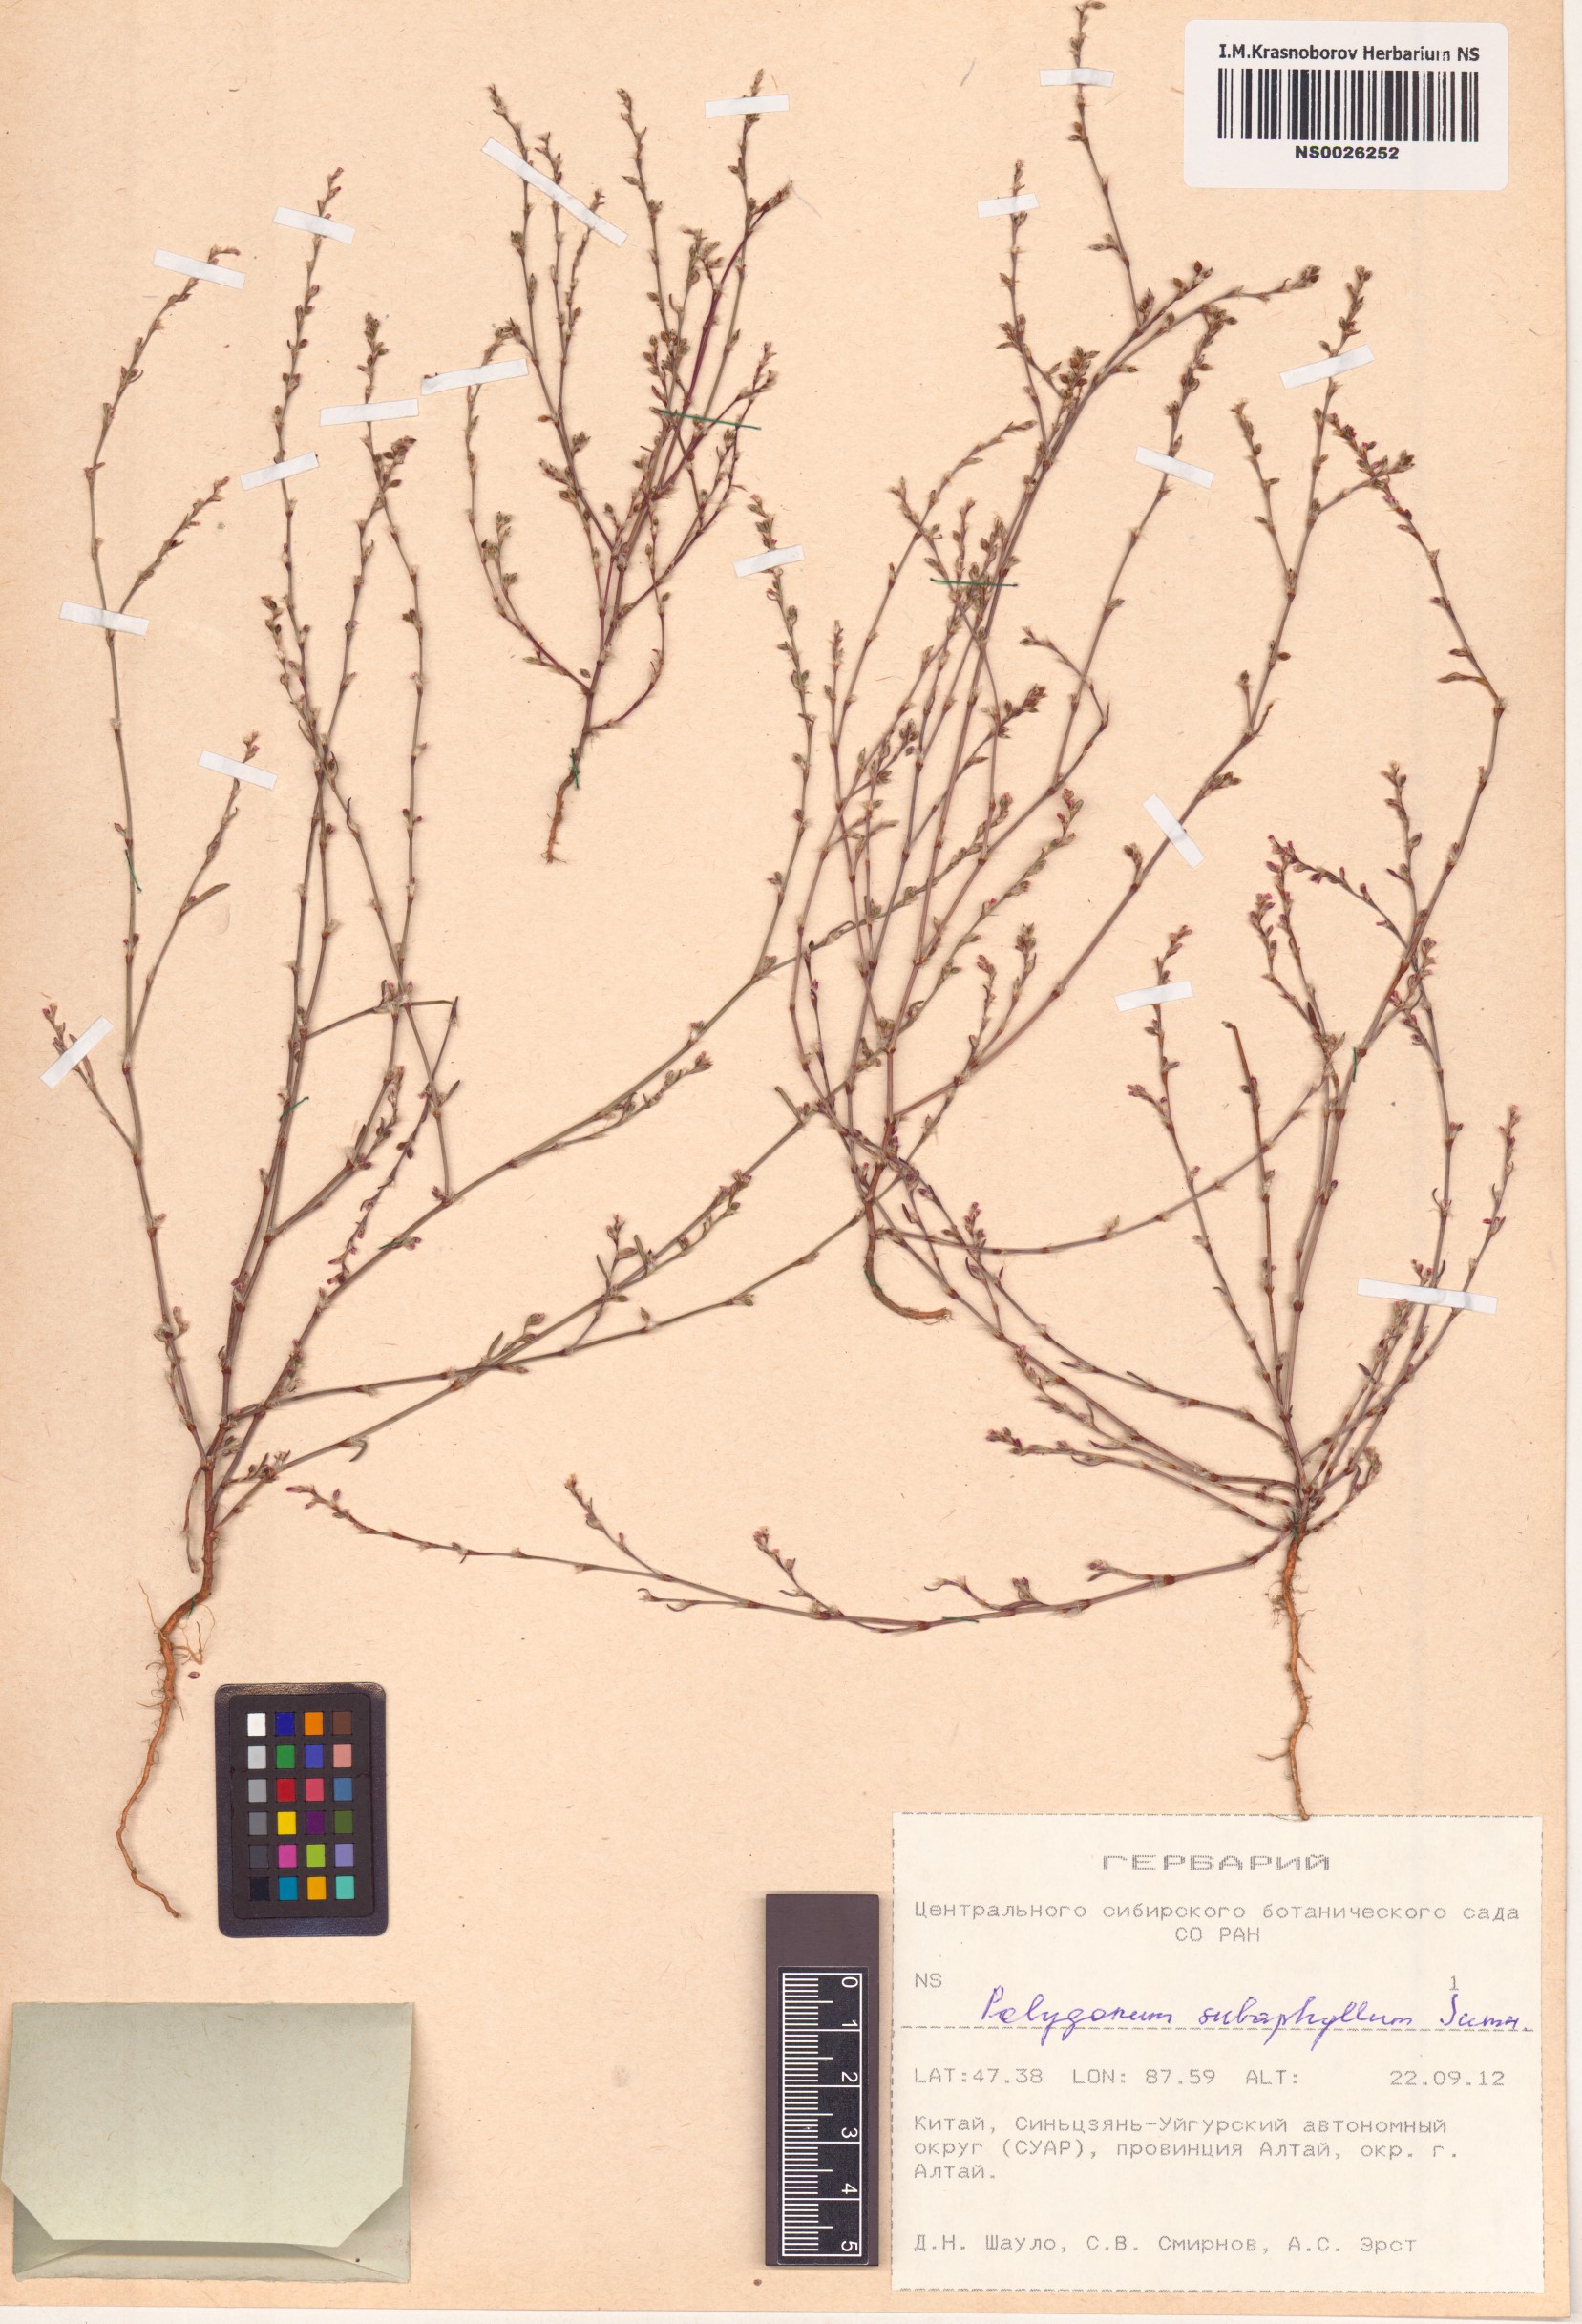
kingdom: Plantae
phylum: Tracheophyta
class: Magnoliopsida
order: Caryophyllales
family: Polygonaceae
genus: Polygonum
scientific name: Polygonum subaphyllum
